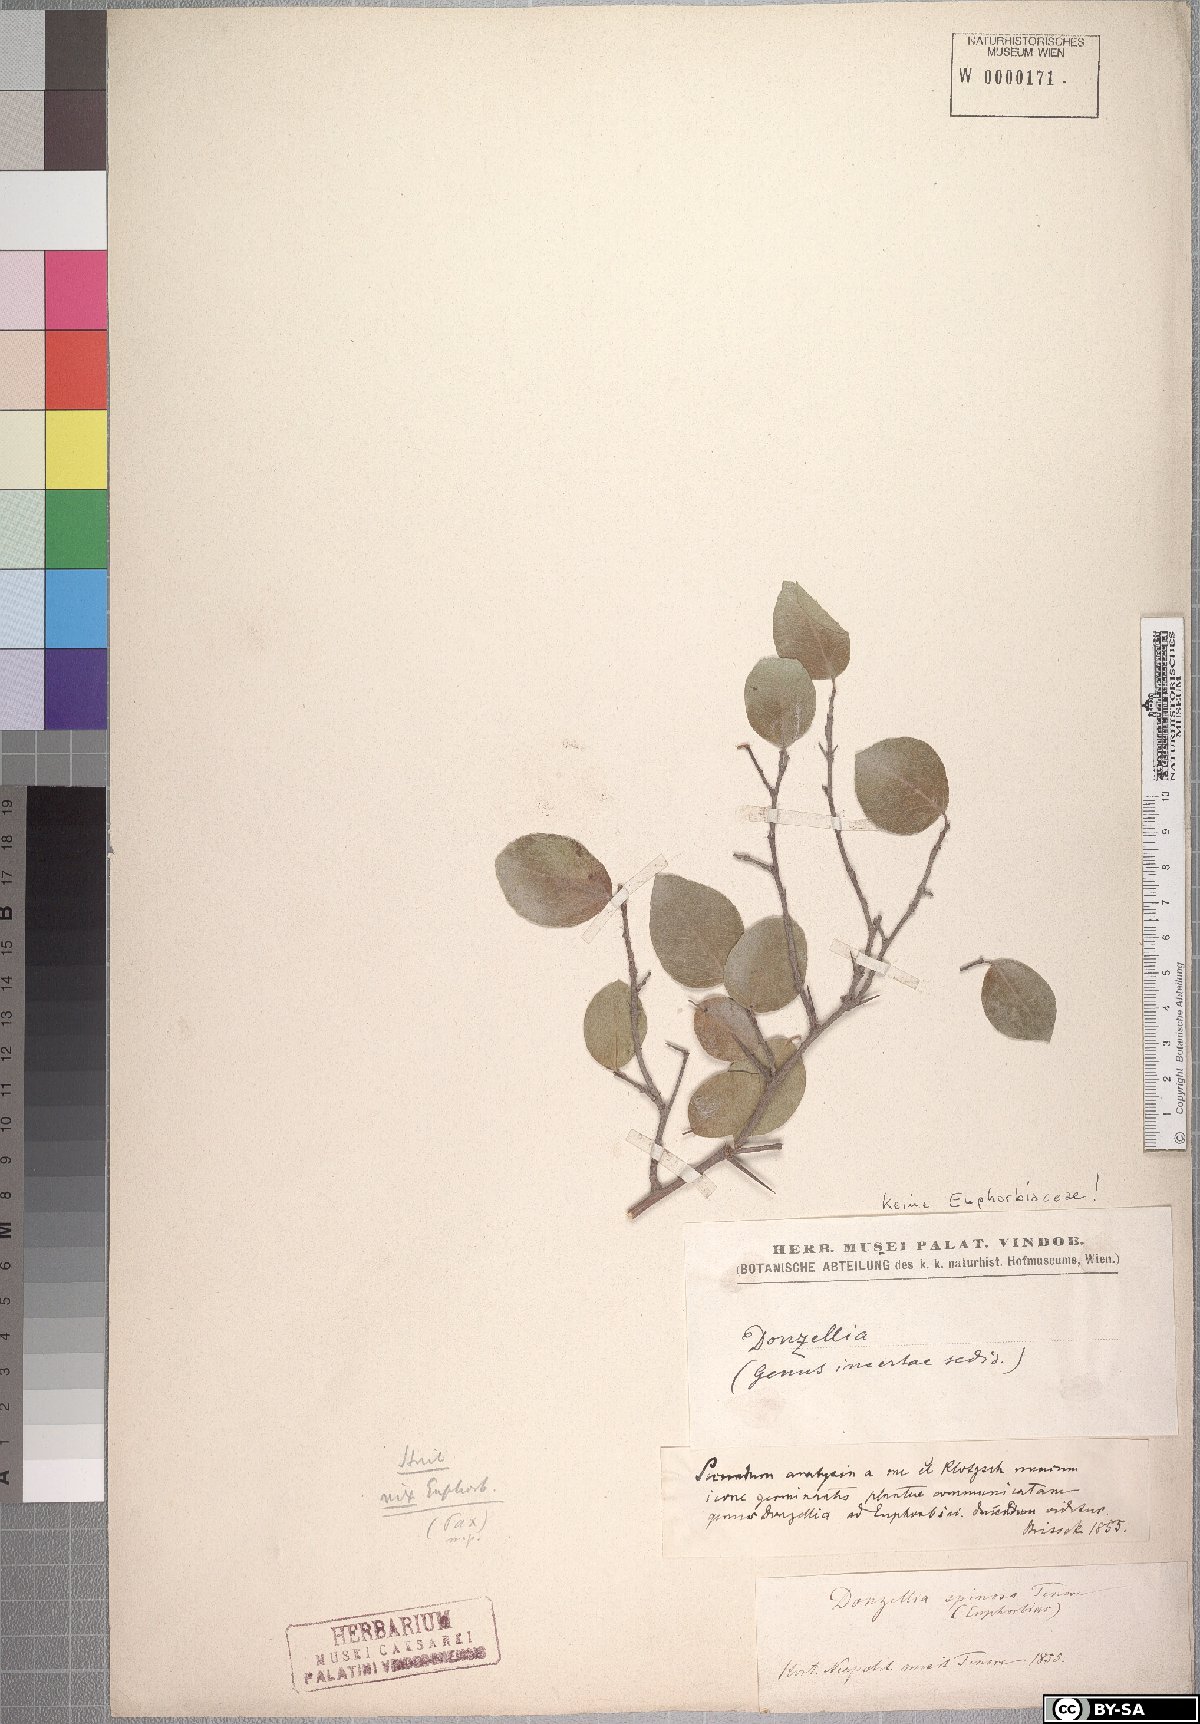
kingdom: Plantae
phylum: Tracheophyta
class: Magnoliopsida
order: Malpighiales
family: Salicaceae
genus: Flacourtia
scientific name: Flacourtia Donzellia spinosa
